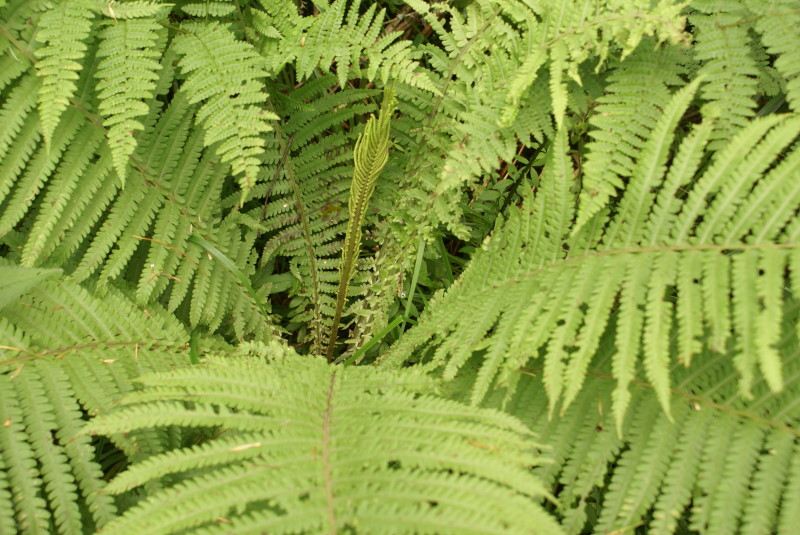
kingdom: Plantae
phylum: Tracheophyta
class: Polypodiopsida
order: Polypodiales
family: Onocleaceae
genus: Matteuccia
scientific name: Matteuccia struthiopteris
